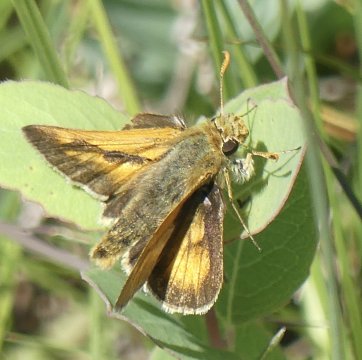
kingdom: Animalia
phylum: Arthropoda
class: Insecta
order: Lepidoptera
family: Hesperiidae
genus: Polites
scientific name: Polites
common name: Long Dash Skipper
